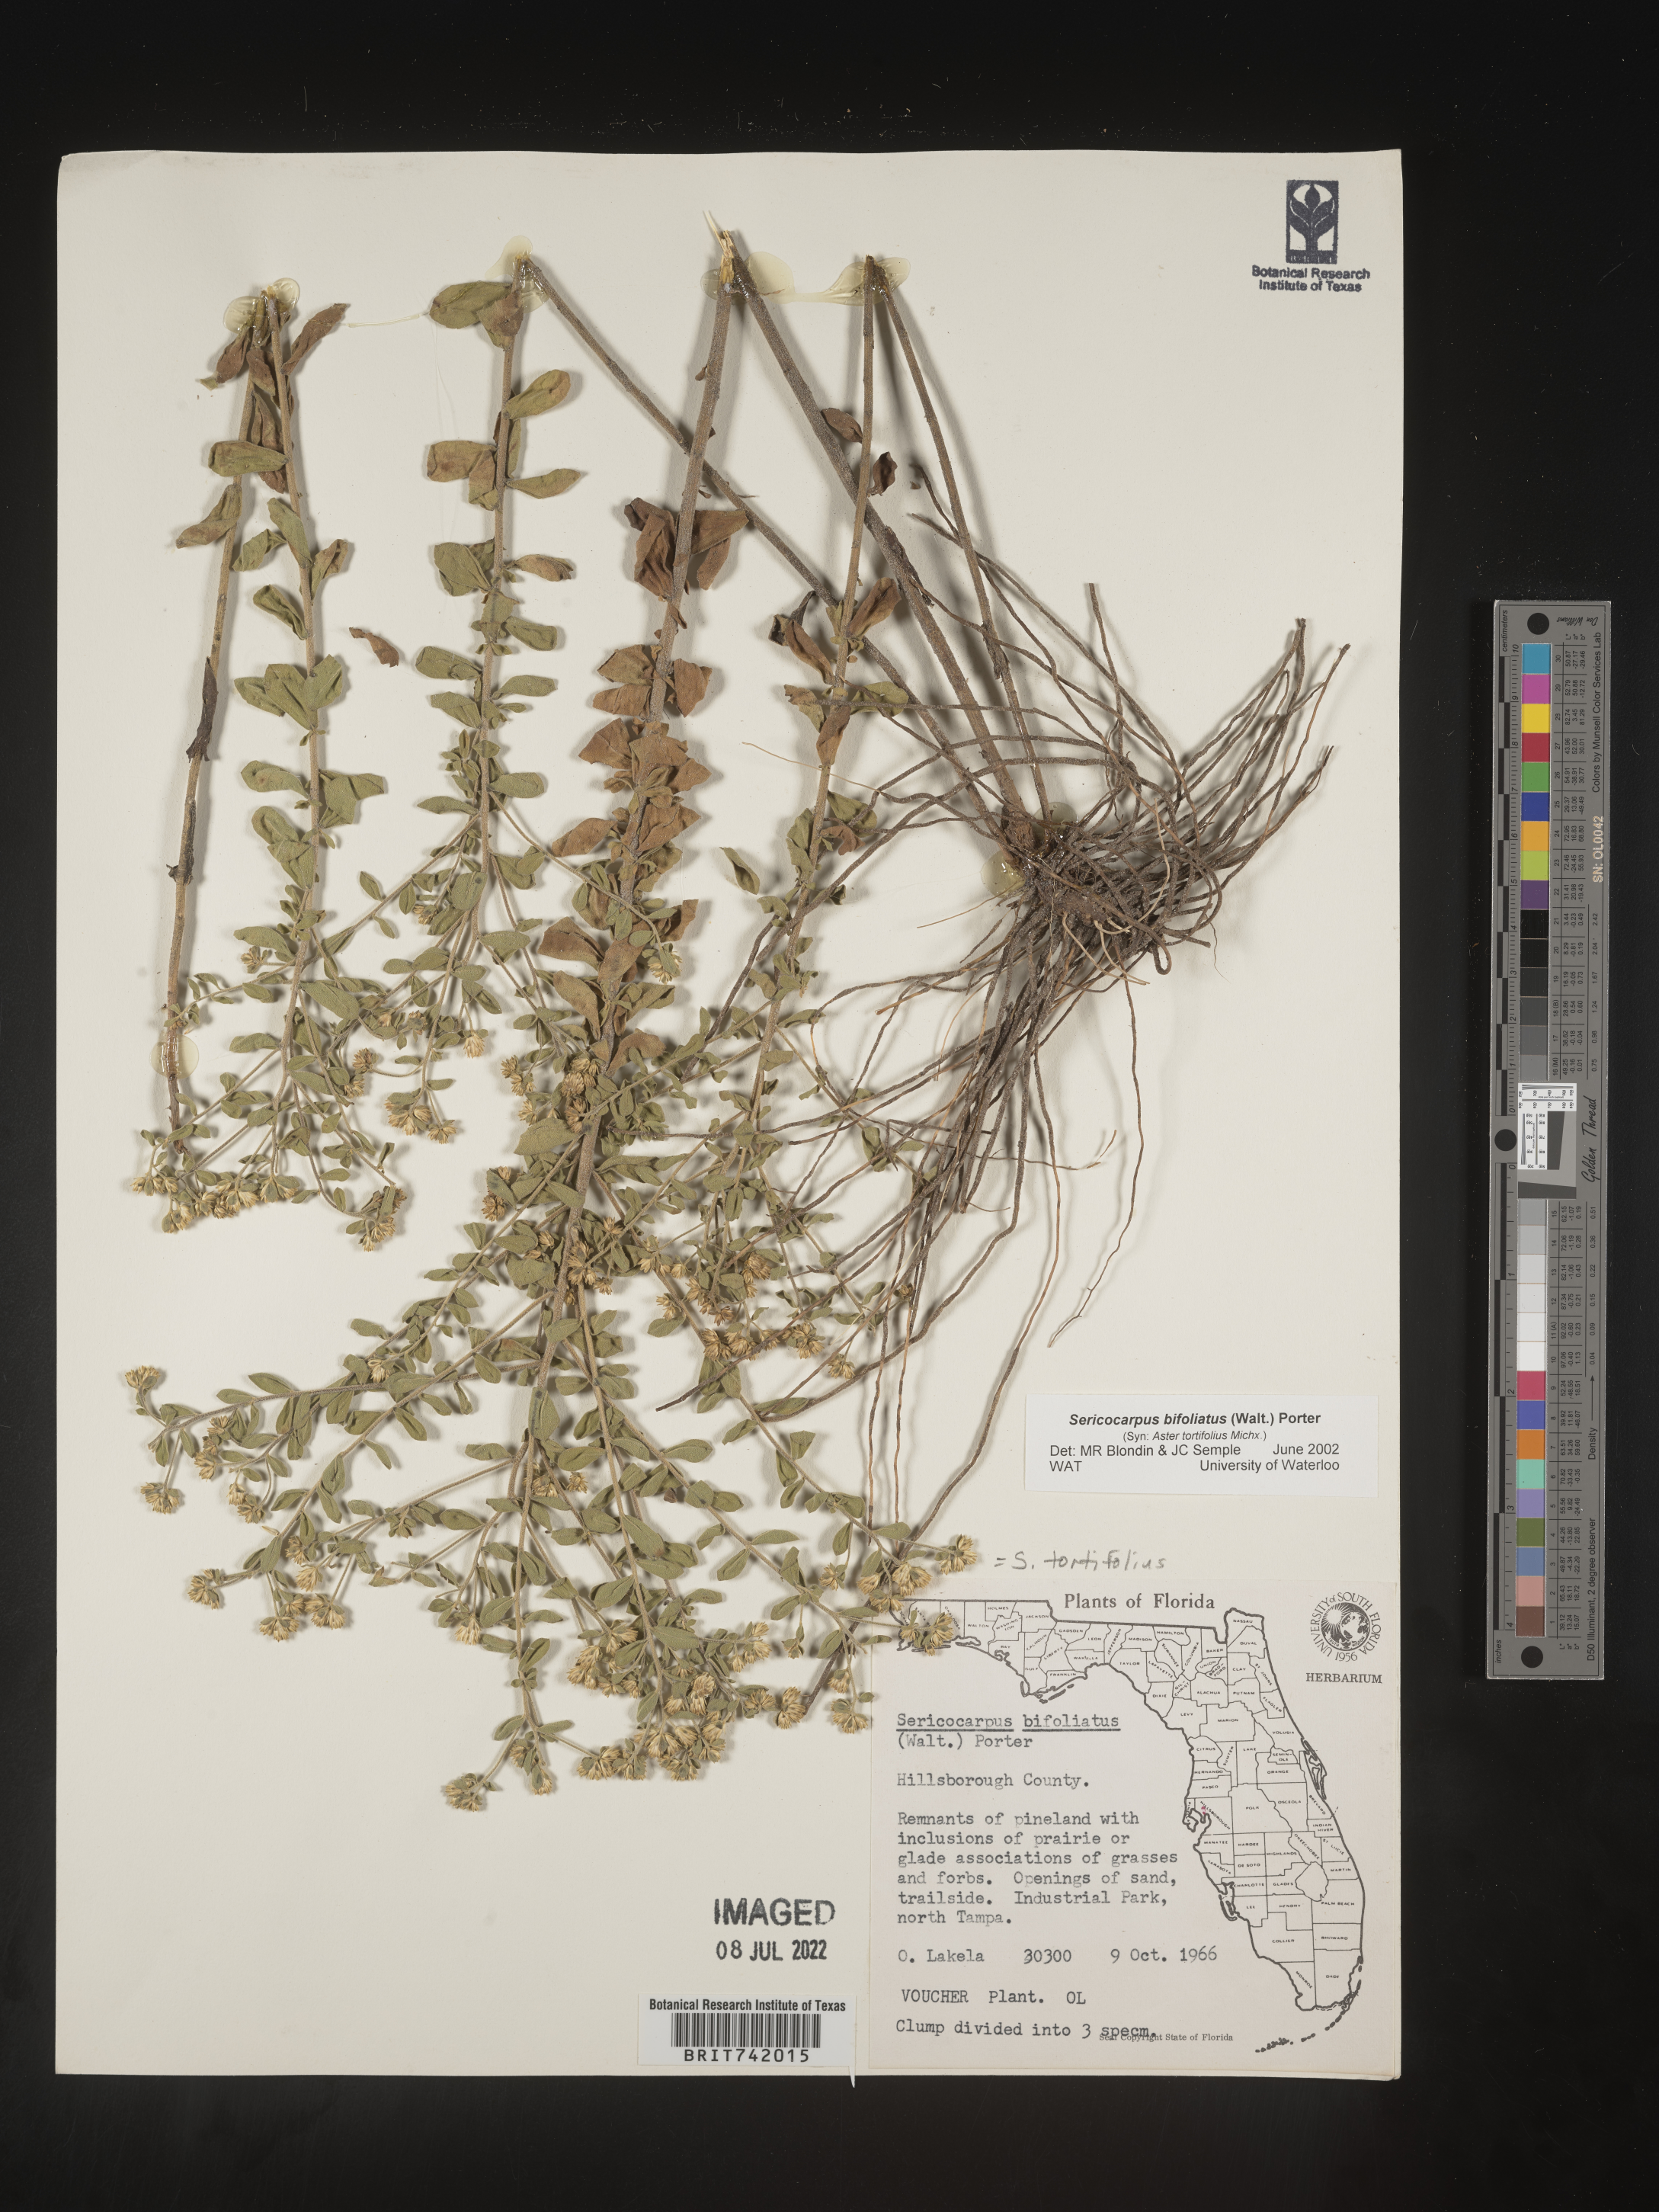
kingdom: Plantae
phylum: Tracheophyta
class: Magnoliopsida
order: Asterales
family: Asteraceae
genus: Sericocarpus
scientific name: Sericocarpus tortifolius
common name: Dixie aster
